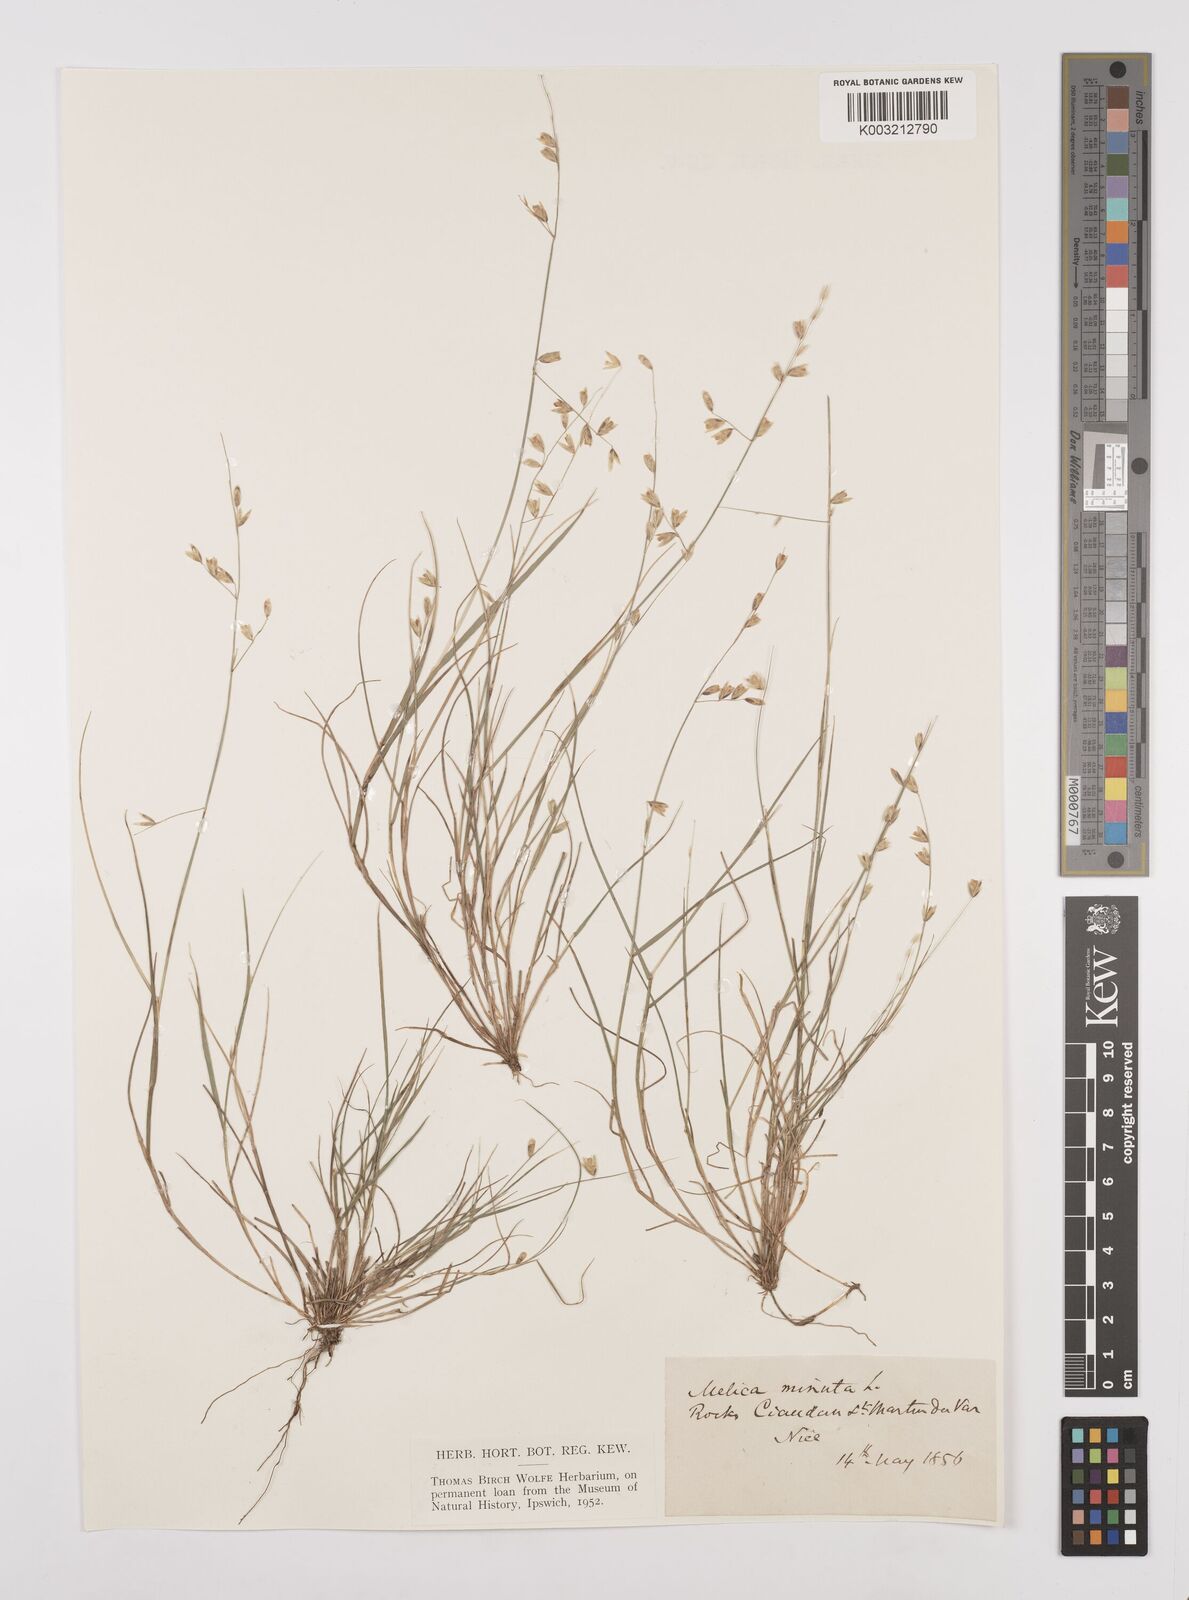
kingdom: Plantae
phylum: Tracheophyta
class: Liliopsida
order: Poales
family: Poaceae
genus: Melica
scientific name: Melica minuta
